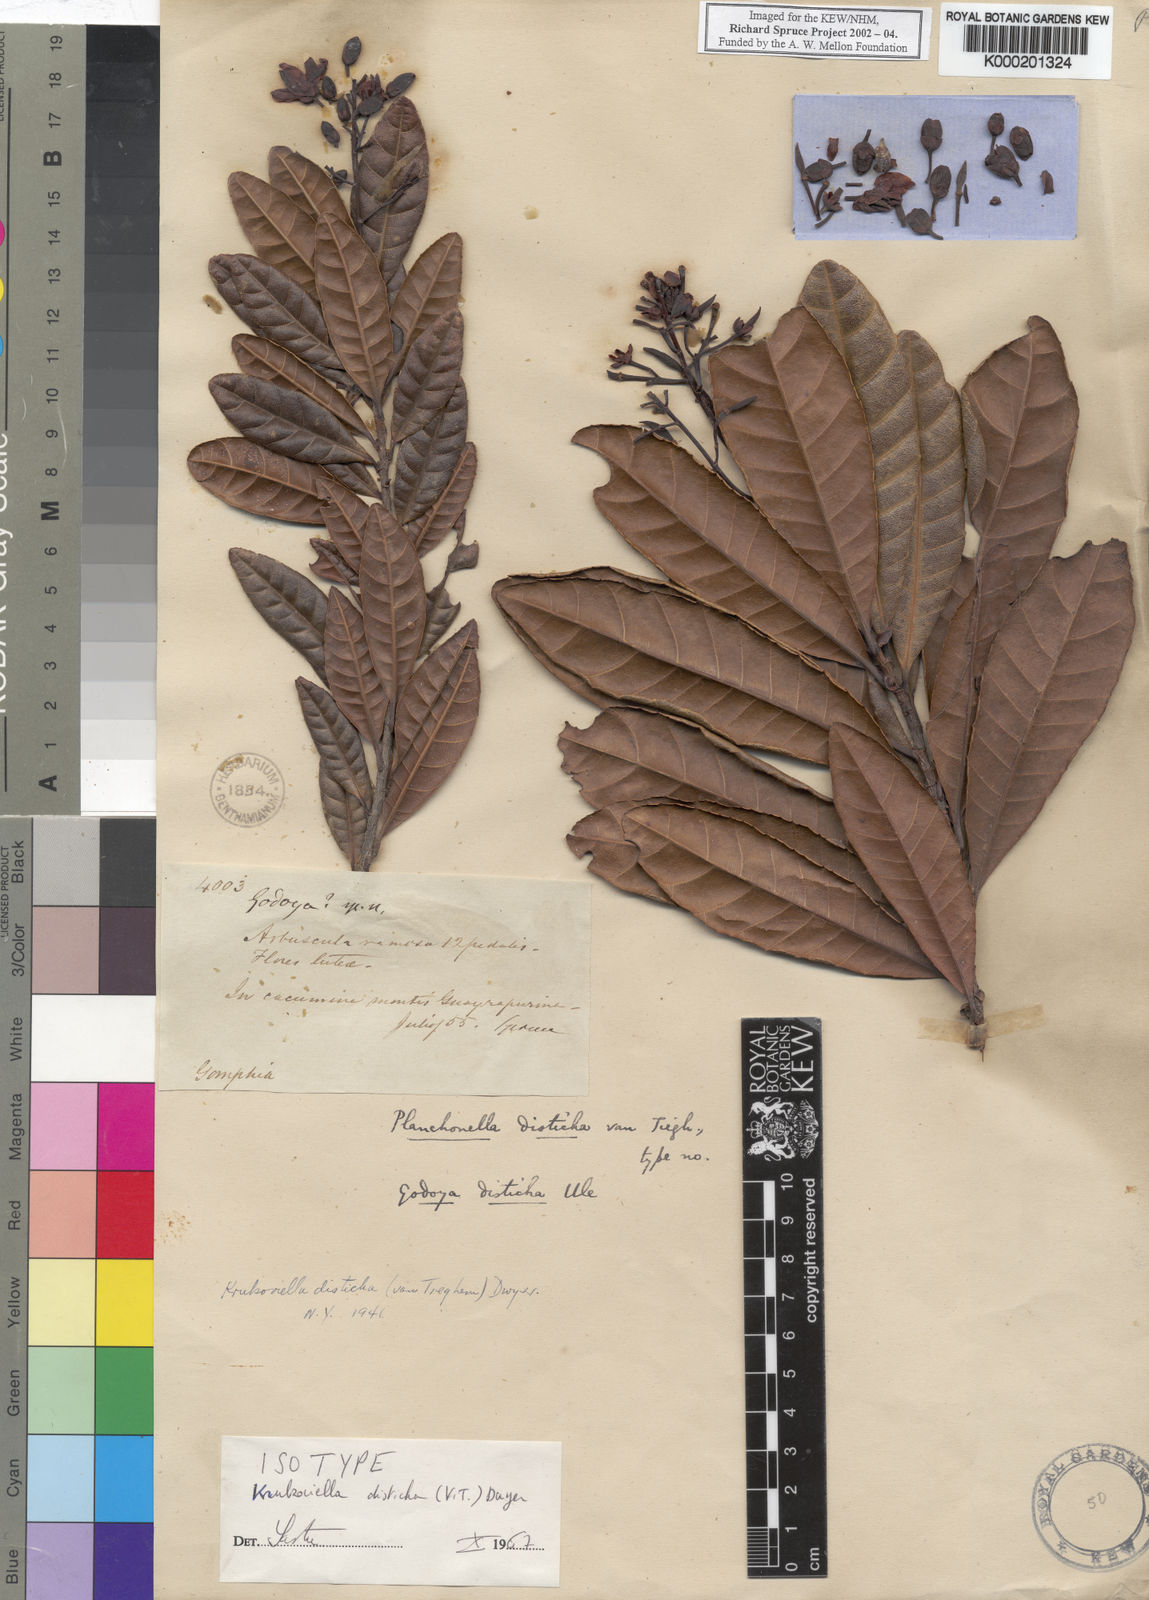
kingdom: Plantae
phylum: Tracheophyta
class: Magnoliopsida
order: Malpighiales
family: Ochnaceae
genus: Krukoviella
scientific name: Krukoviella disticha
